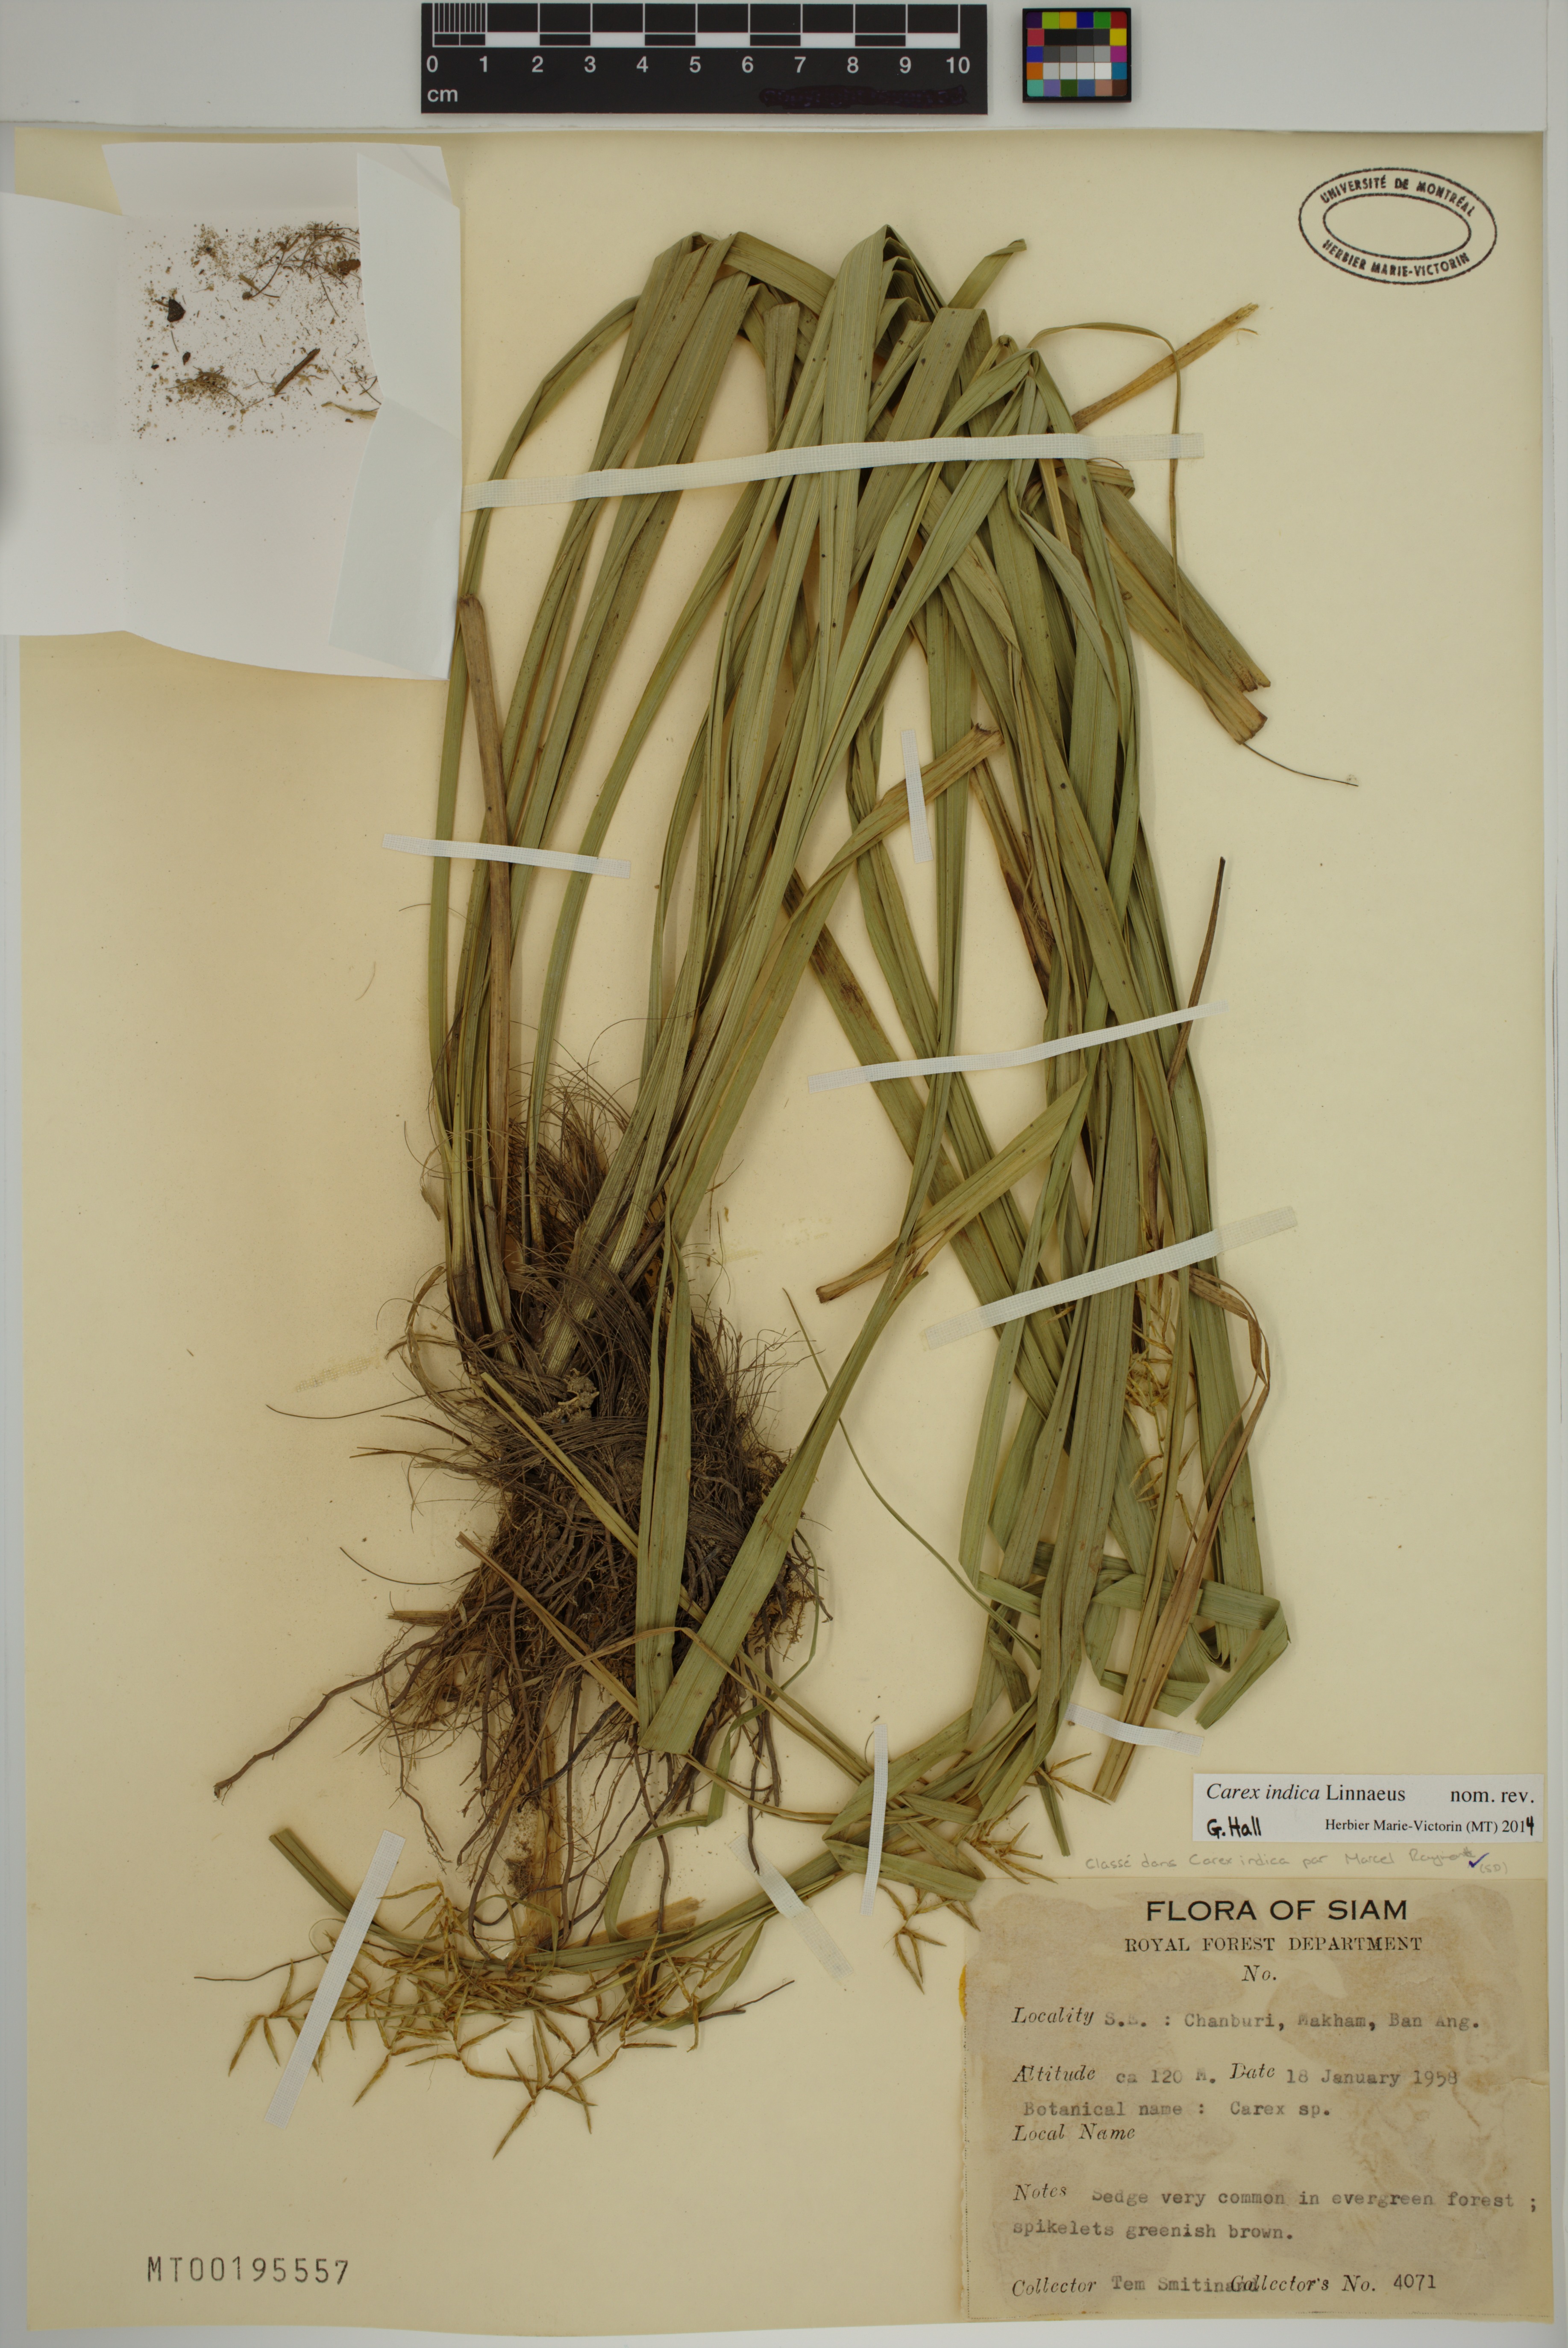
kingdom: Plantae
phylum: Tracheophyta
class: Liliopsida
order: Poales
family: Cyperaceae
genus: Carex
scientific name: Carex indica
